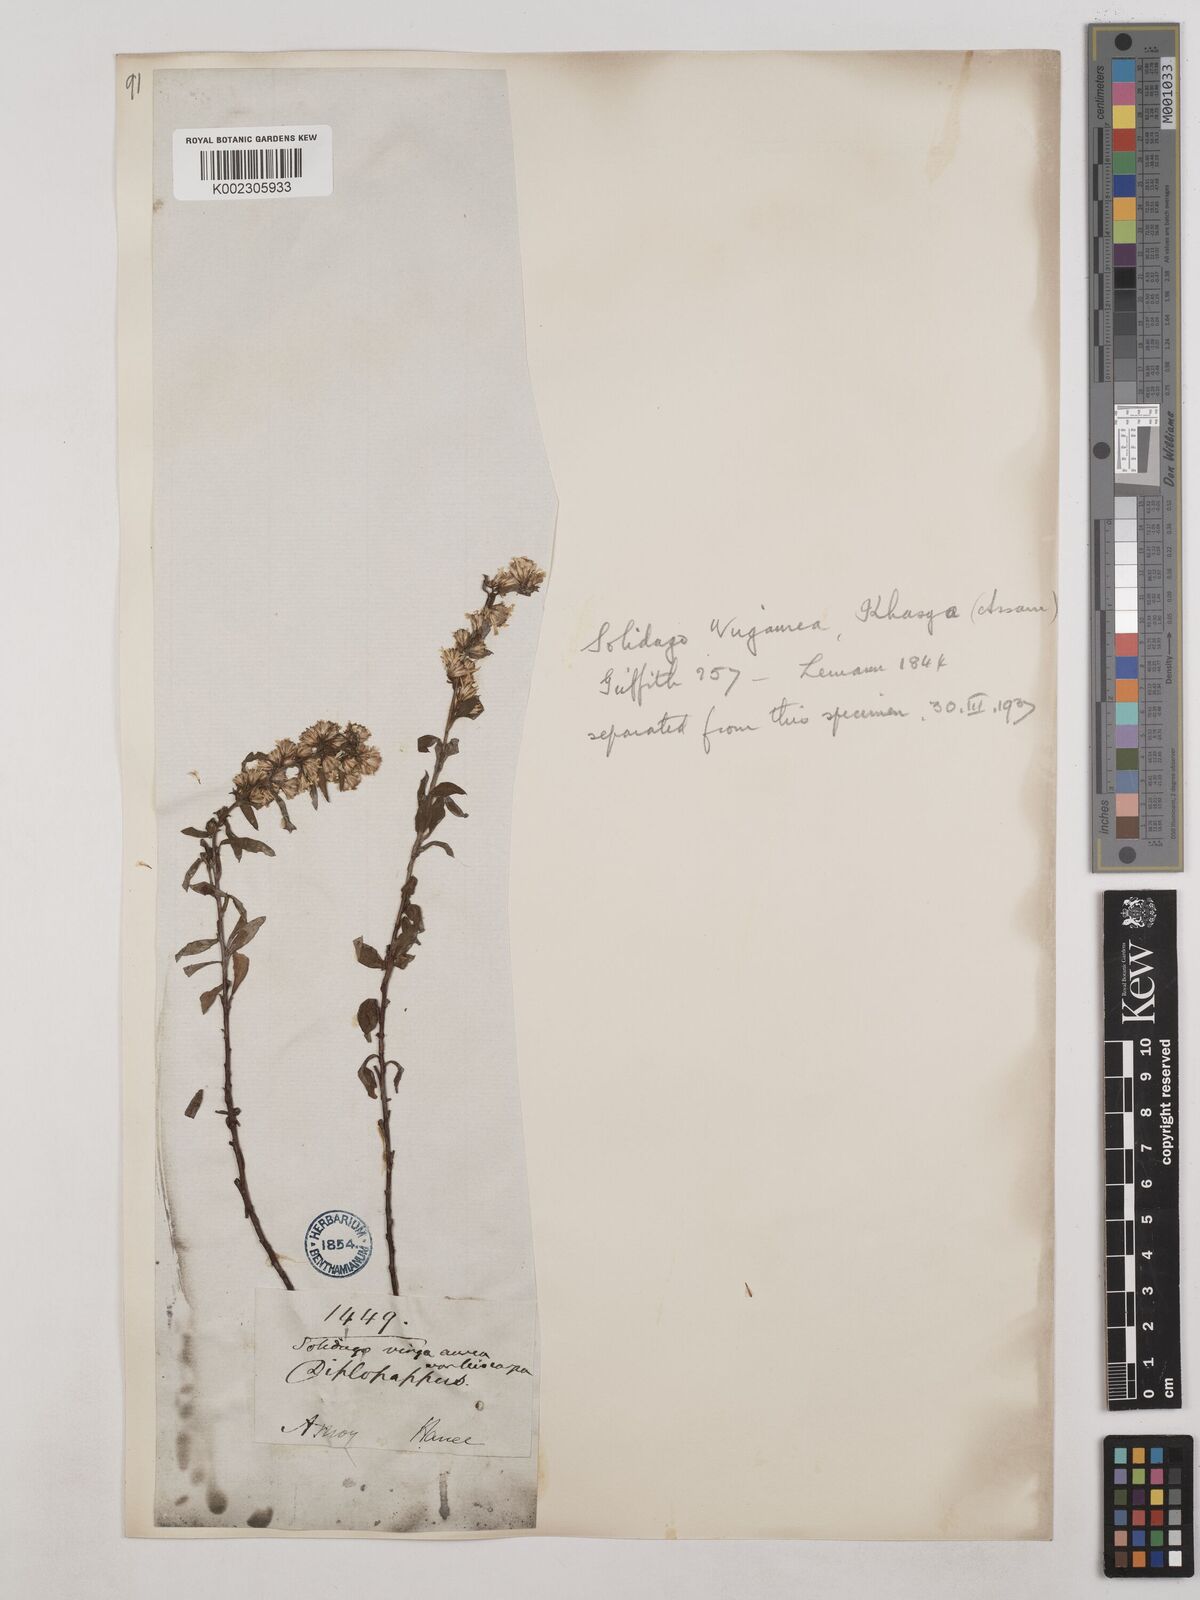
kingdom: Plantae
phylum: Tracheophyta
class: Magnoliopsida
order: Asterales
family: Asteraceae
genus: Solidago
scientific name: Solidago virgaurea
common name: Goldenrod
